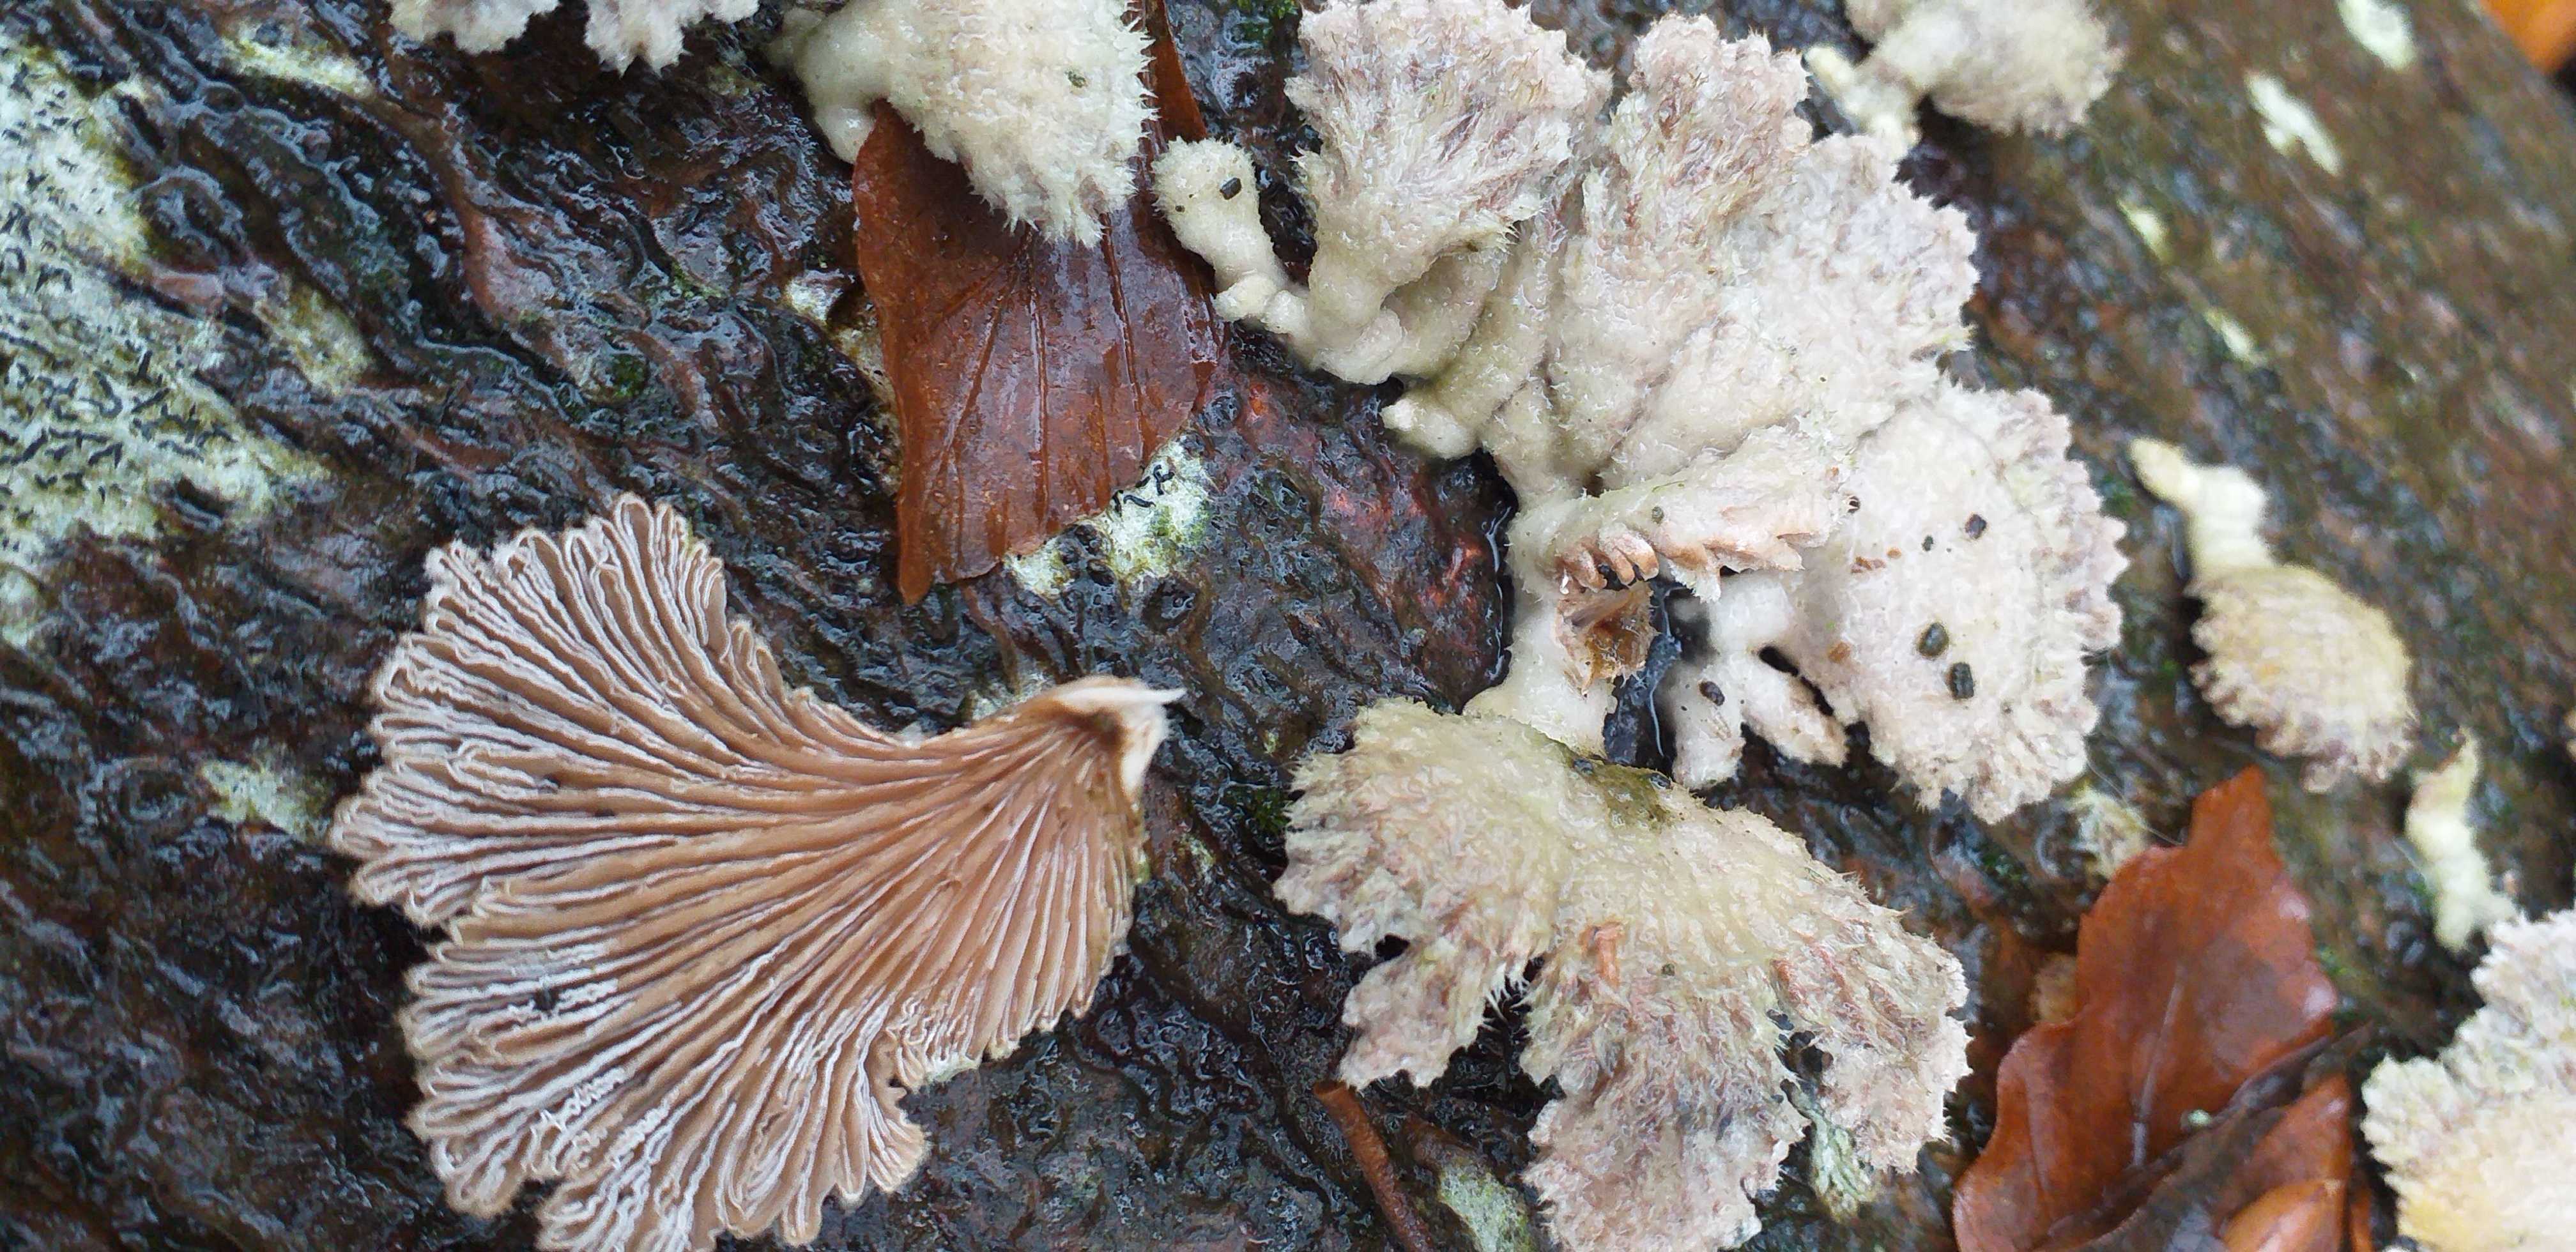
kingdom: Fungi
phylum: Basidiomycota
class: Agaricomycetes
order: Agaricales
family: Schizophyllaceae
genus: Schizophyllum
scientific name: Schizophyllum commune
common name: kløvblad
